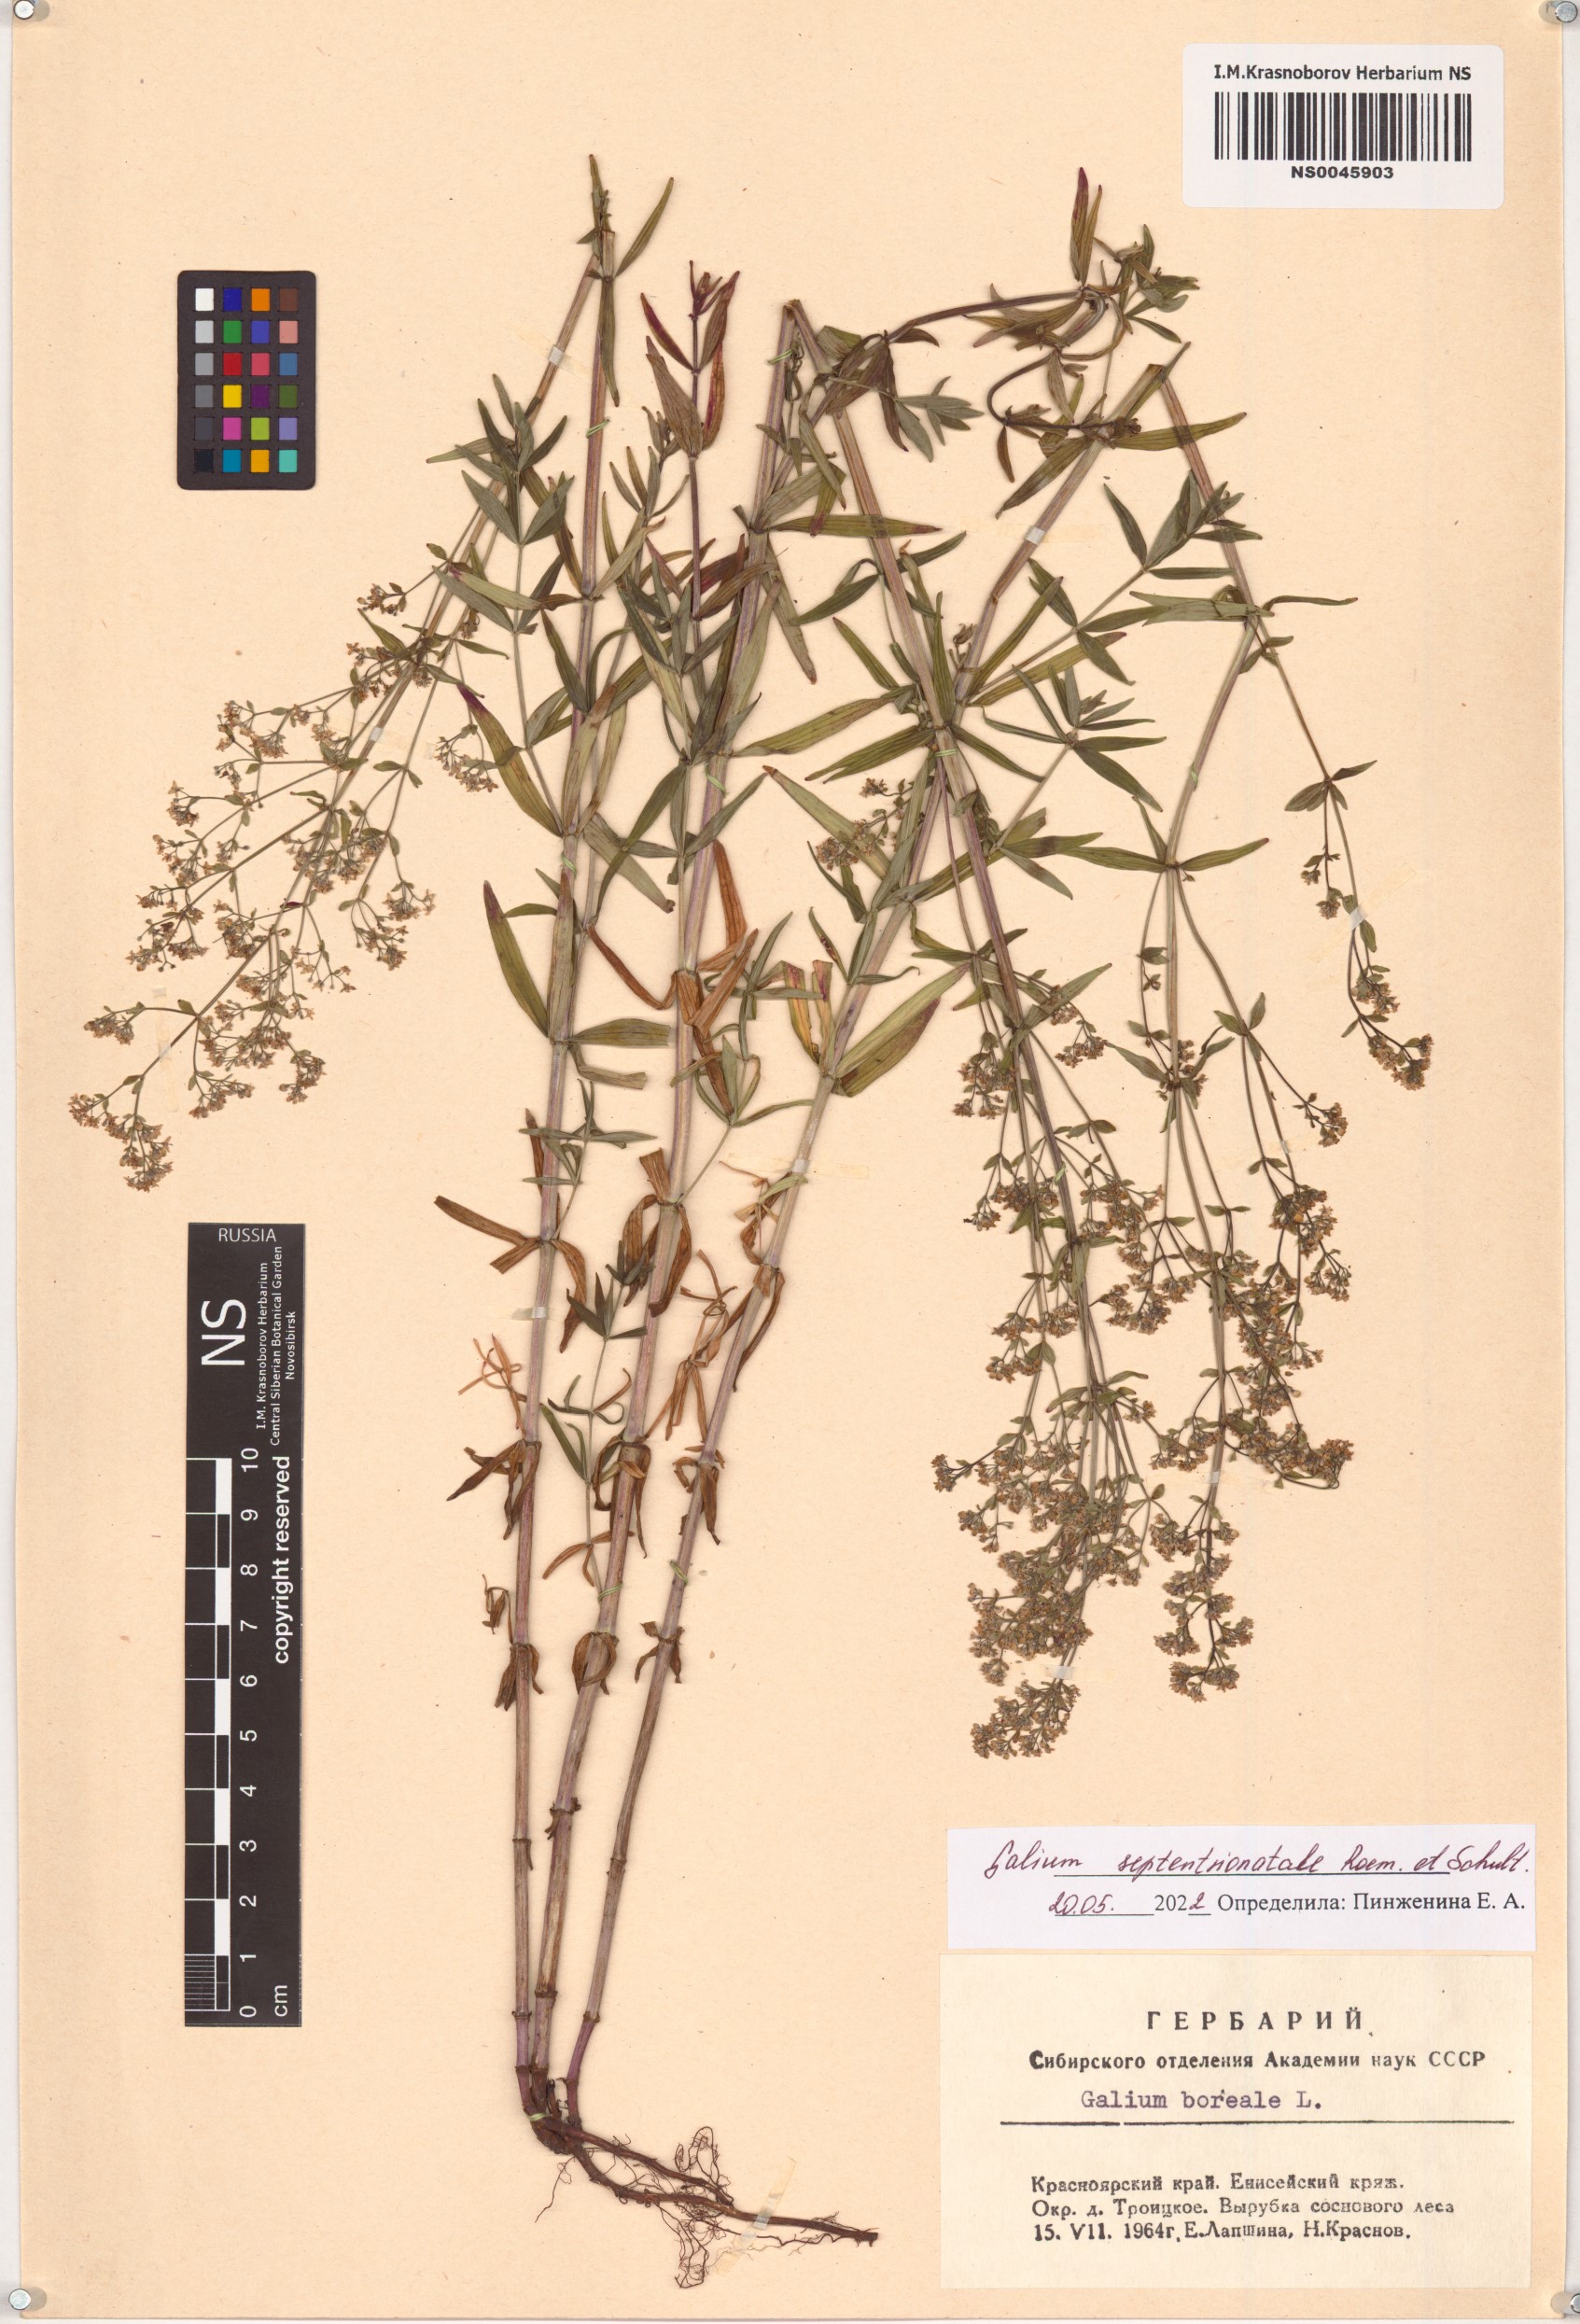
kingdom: Plantae
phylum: Tracheophyta
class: Magnoliopsida
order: Gentianales
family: Rubiaceae
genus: Galium
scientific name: Galium boreale
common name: Northern bedstraw
